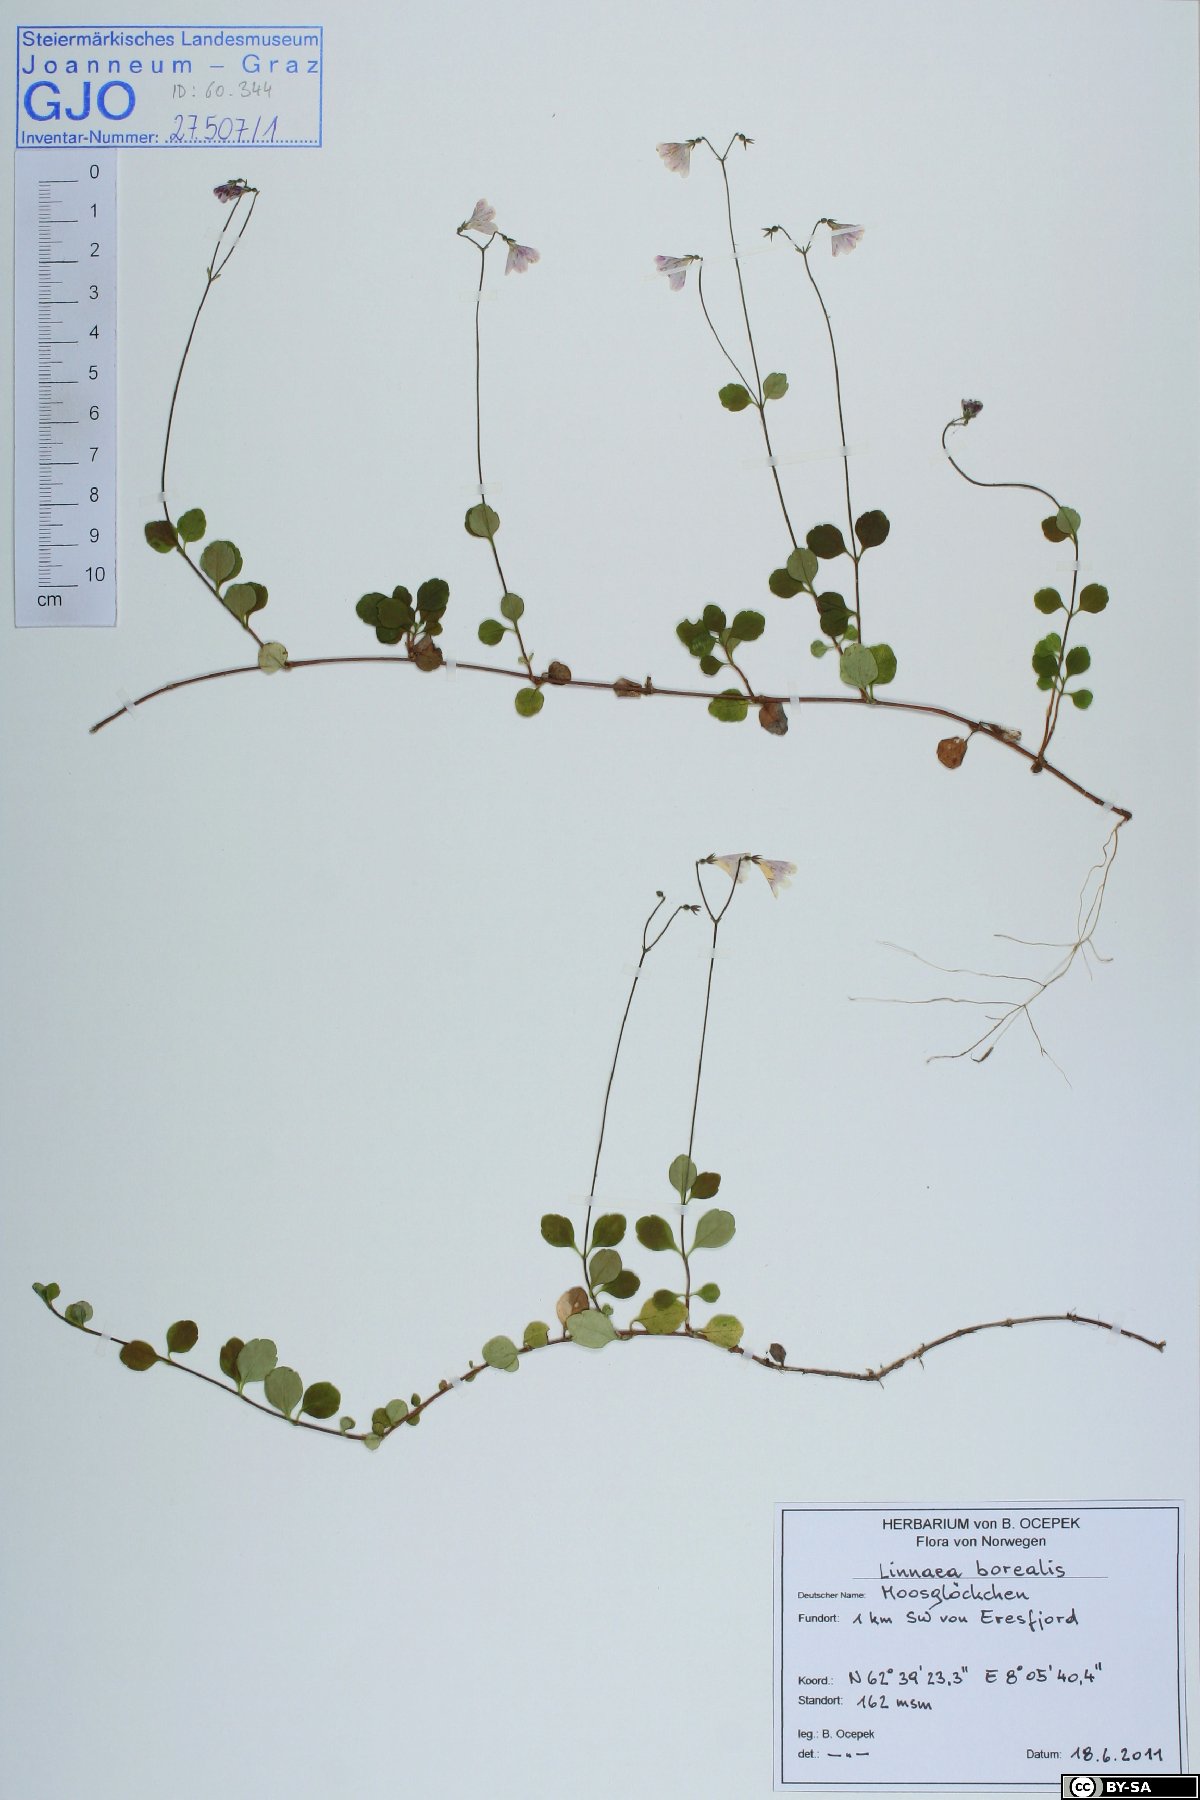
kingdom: Plantae
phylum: Tracheophyta
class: Magnoliopsida
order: Dipsacales
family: Caprifoliaceae
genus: Linnaea
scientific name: Linnaea borealis
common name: Twinflower
